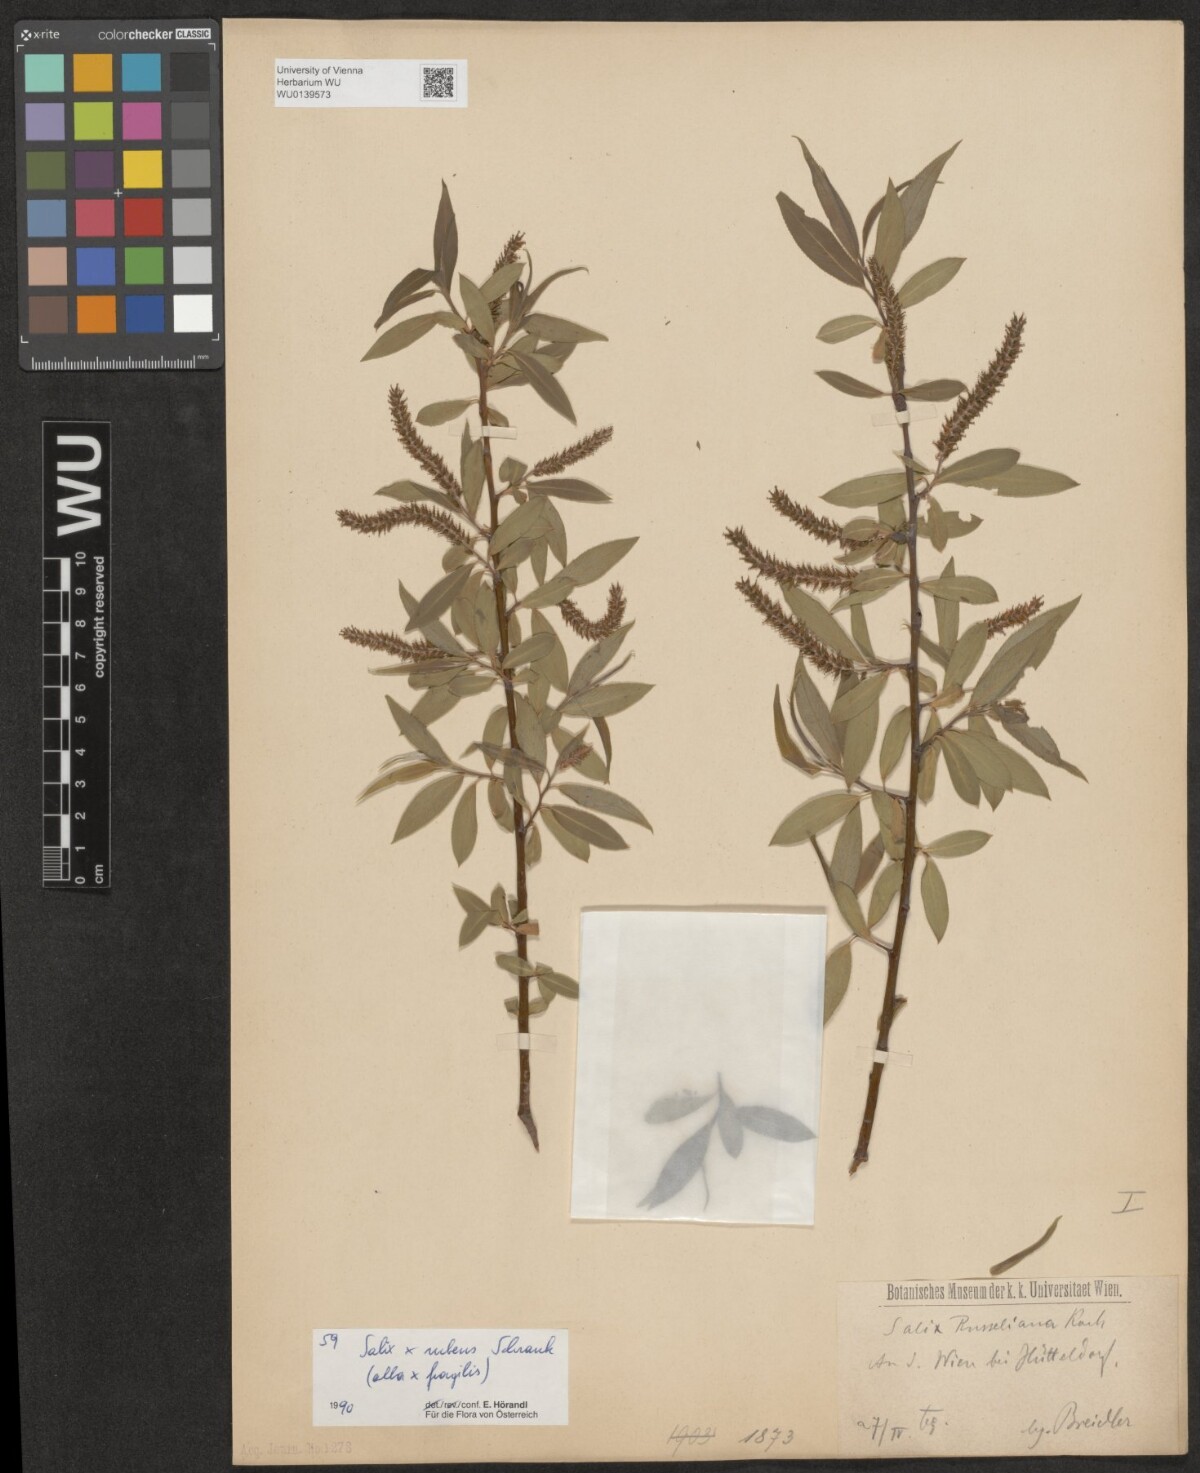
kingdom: Plantae
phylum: Tracheophyta
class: Magnoliopsida
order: Malpighiales
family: Salicaceae
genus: Salix
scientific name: Salix rubens
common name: Hybrid crack willow
